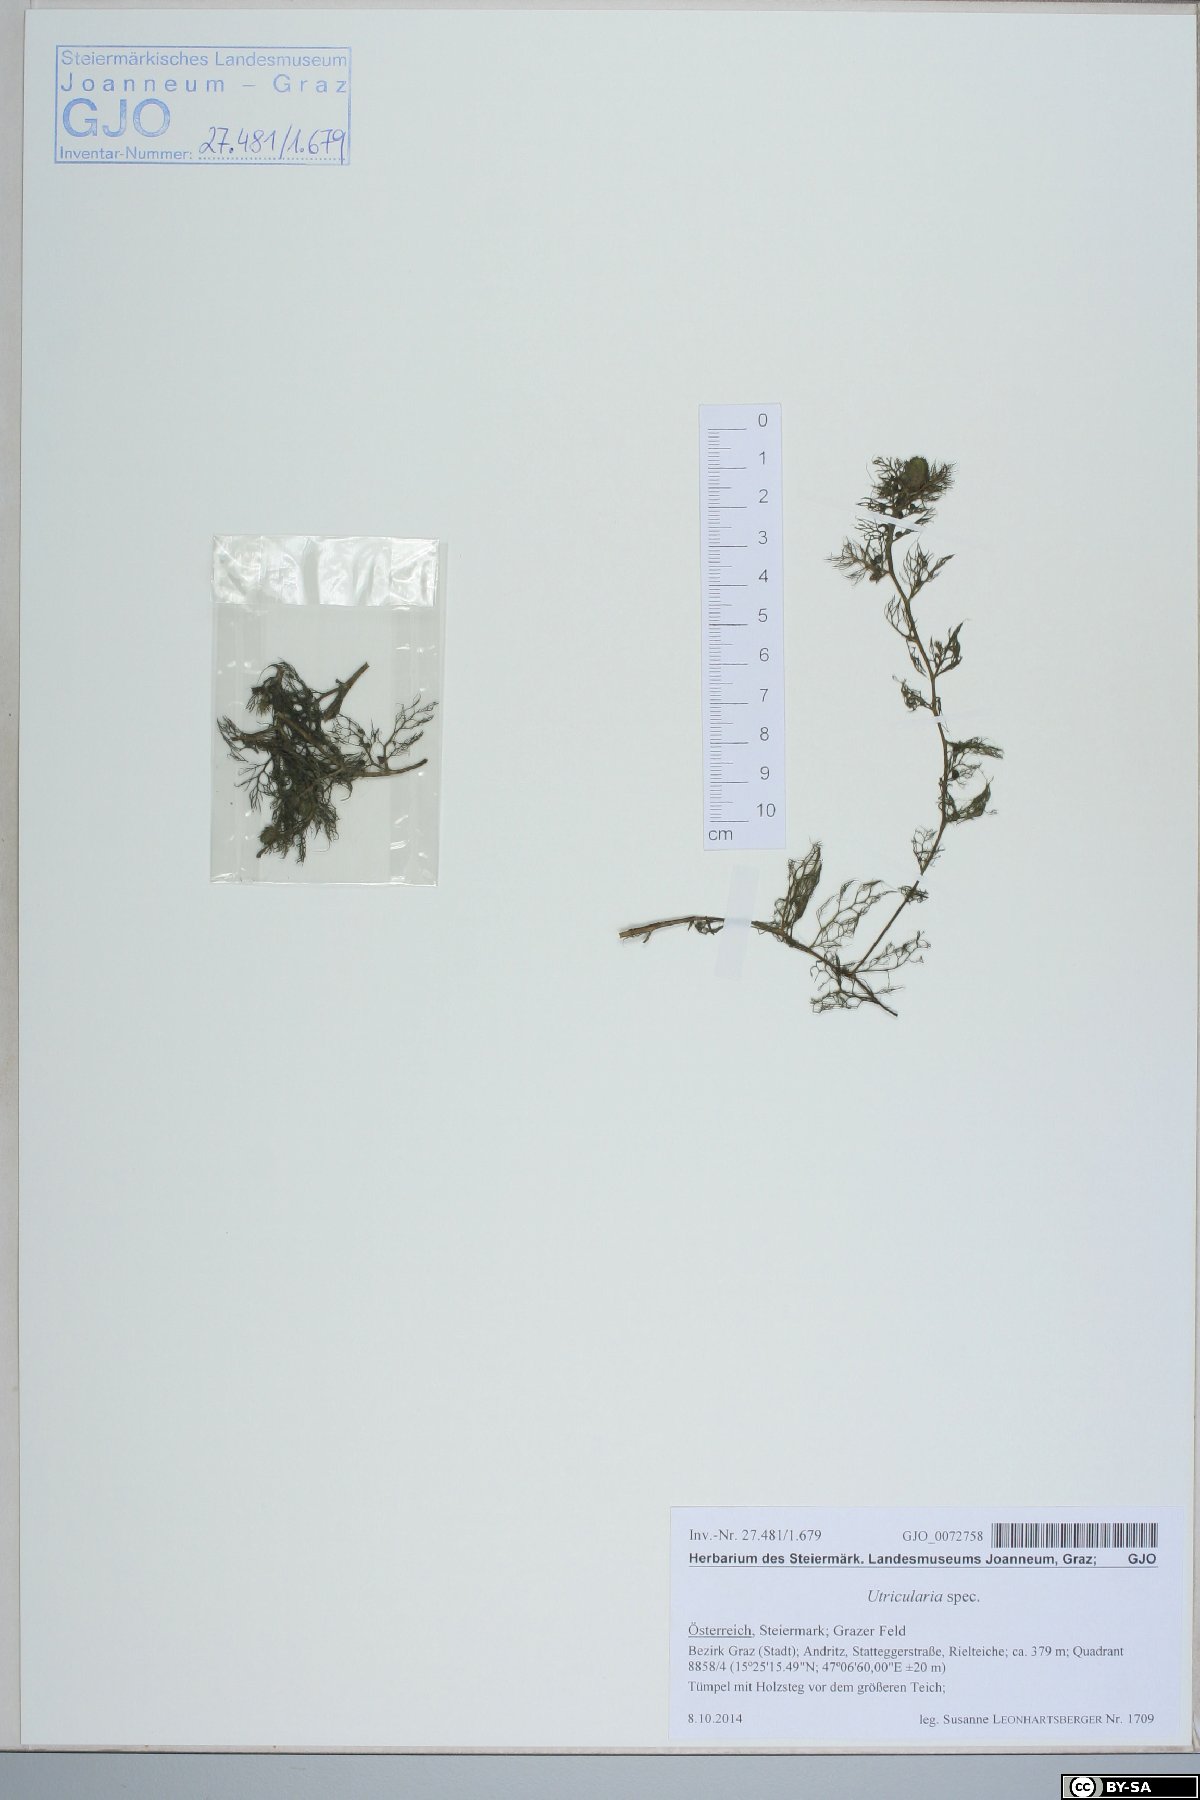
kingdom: Plantae
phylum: Tracheophyta
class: Magnoliopsida
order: Lamiales
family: Lentibulariaceae
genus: Utricularia
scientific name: Utricularia
